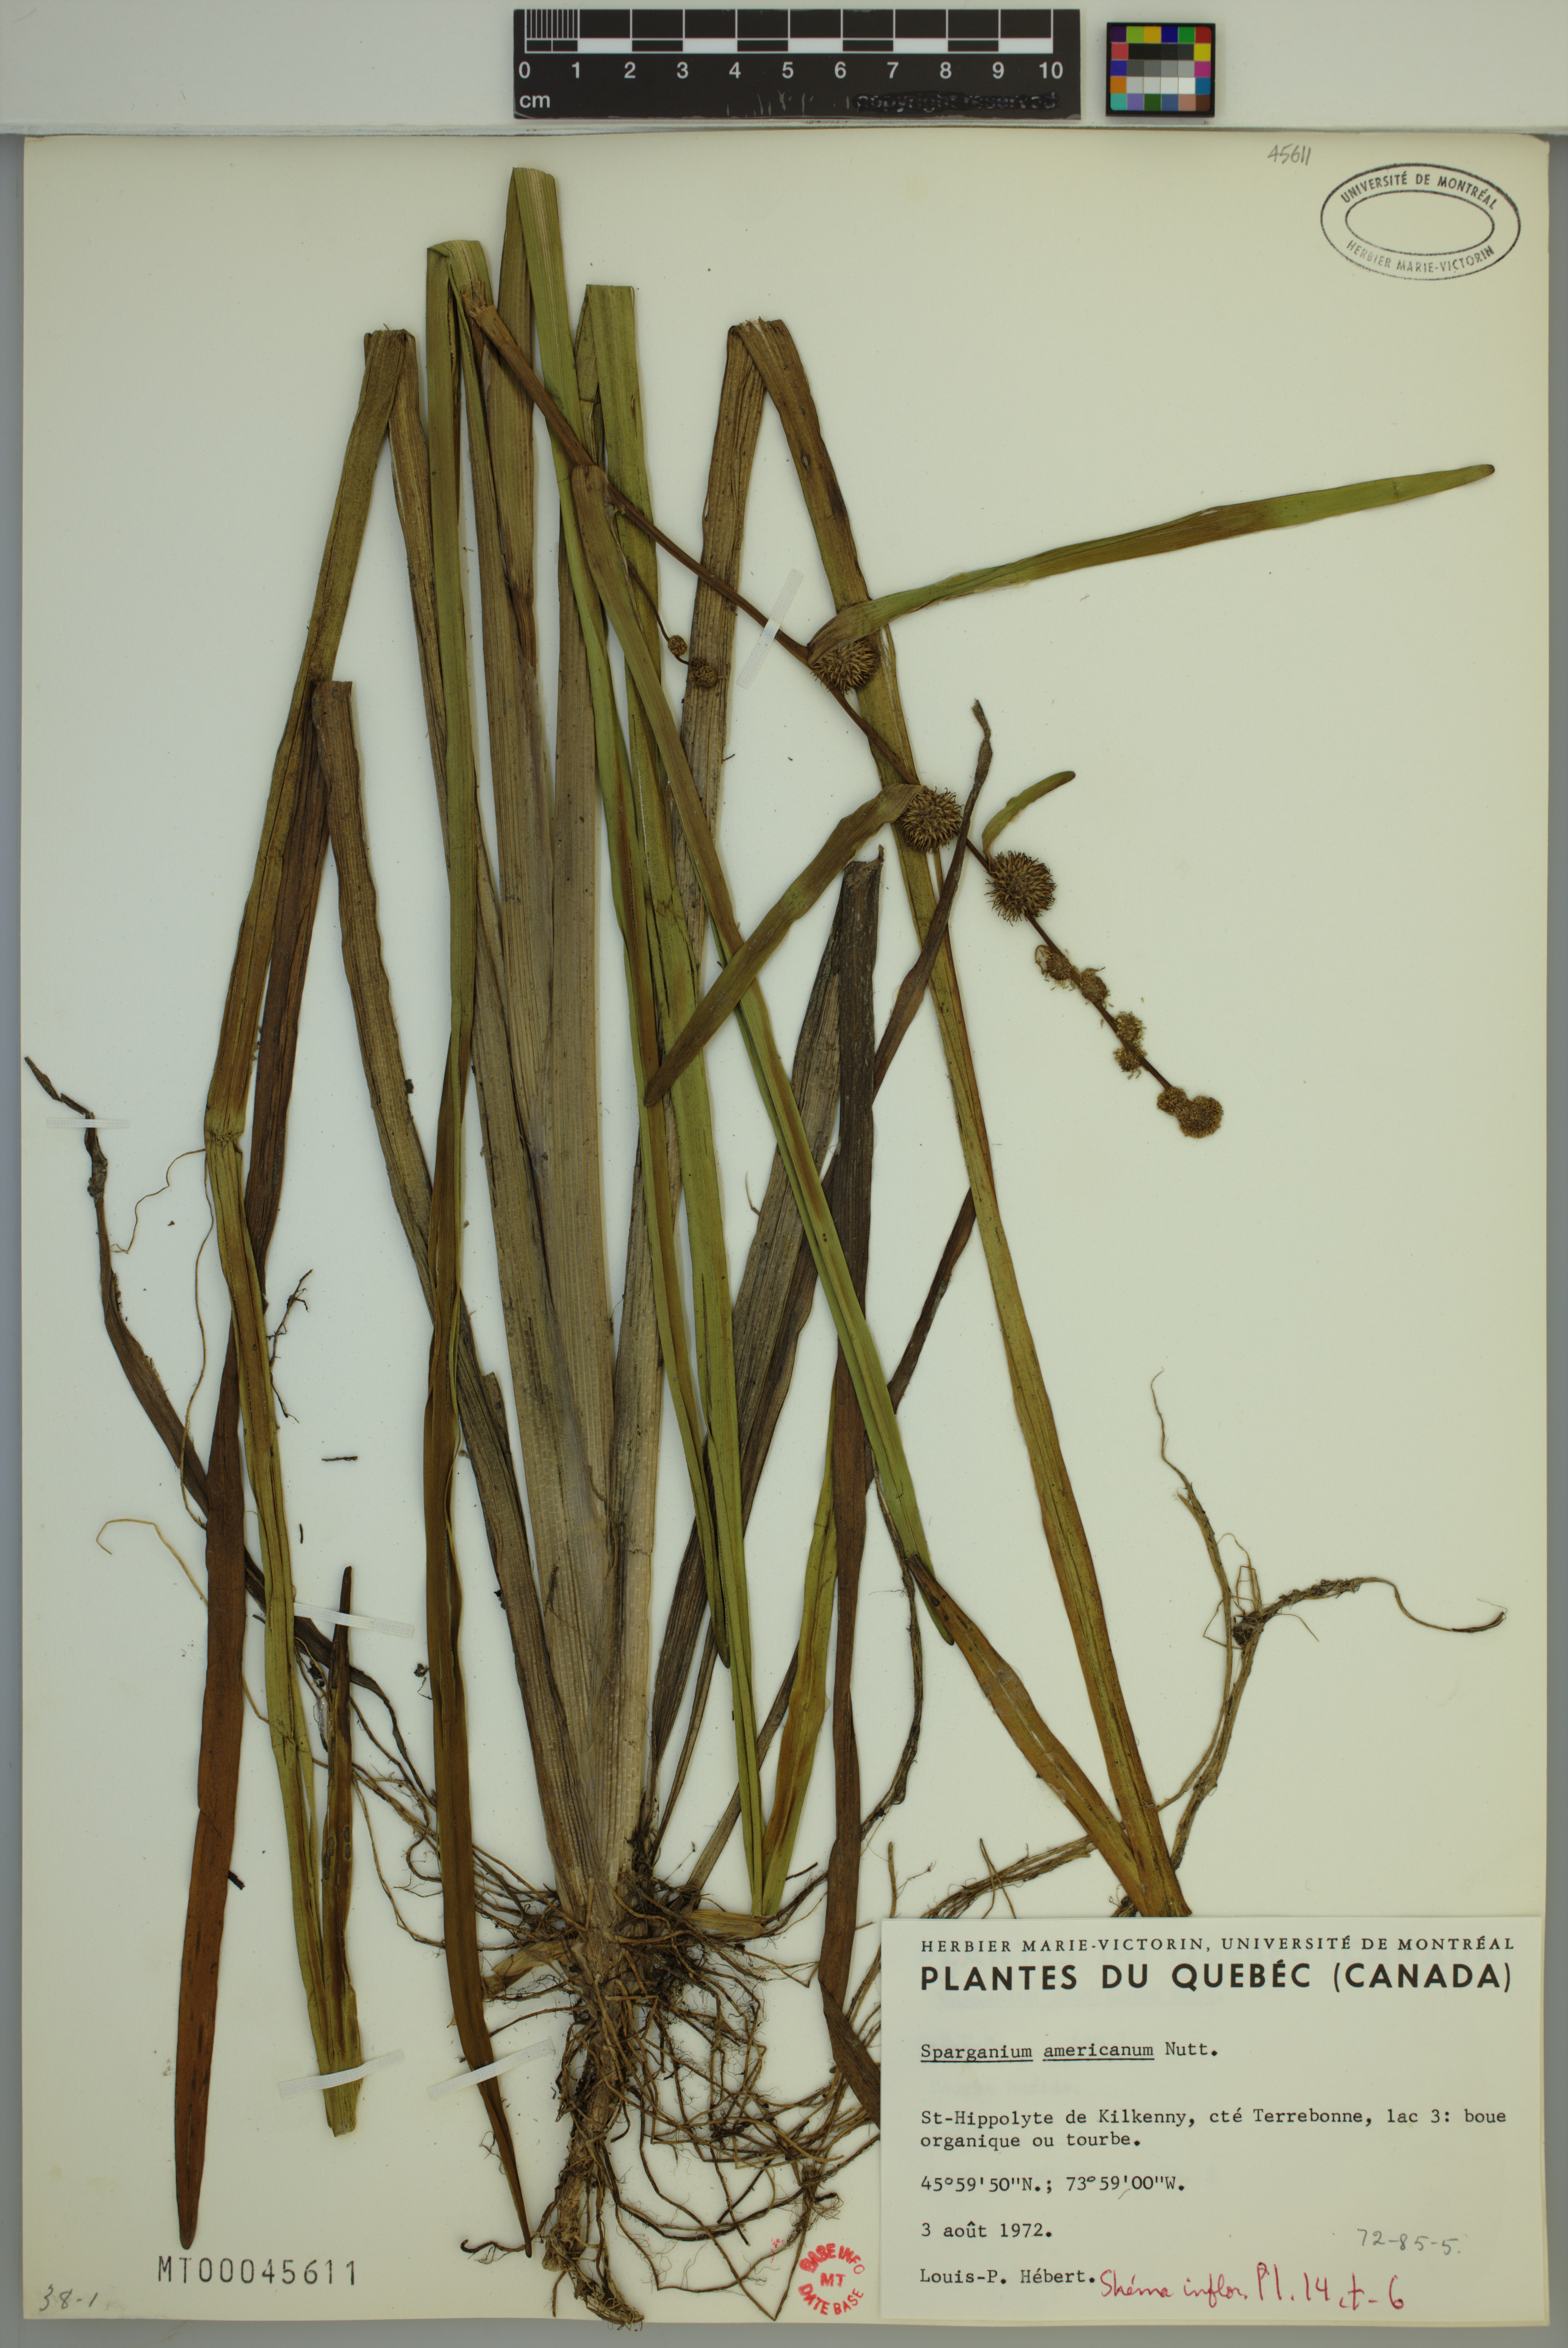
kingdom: Plantae
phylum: Tracheophyta
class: Liliopsida
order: Poales
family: Typhaceae
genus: Sparganium
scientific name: Sparganium americanum
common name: American burreed
